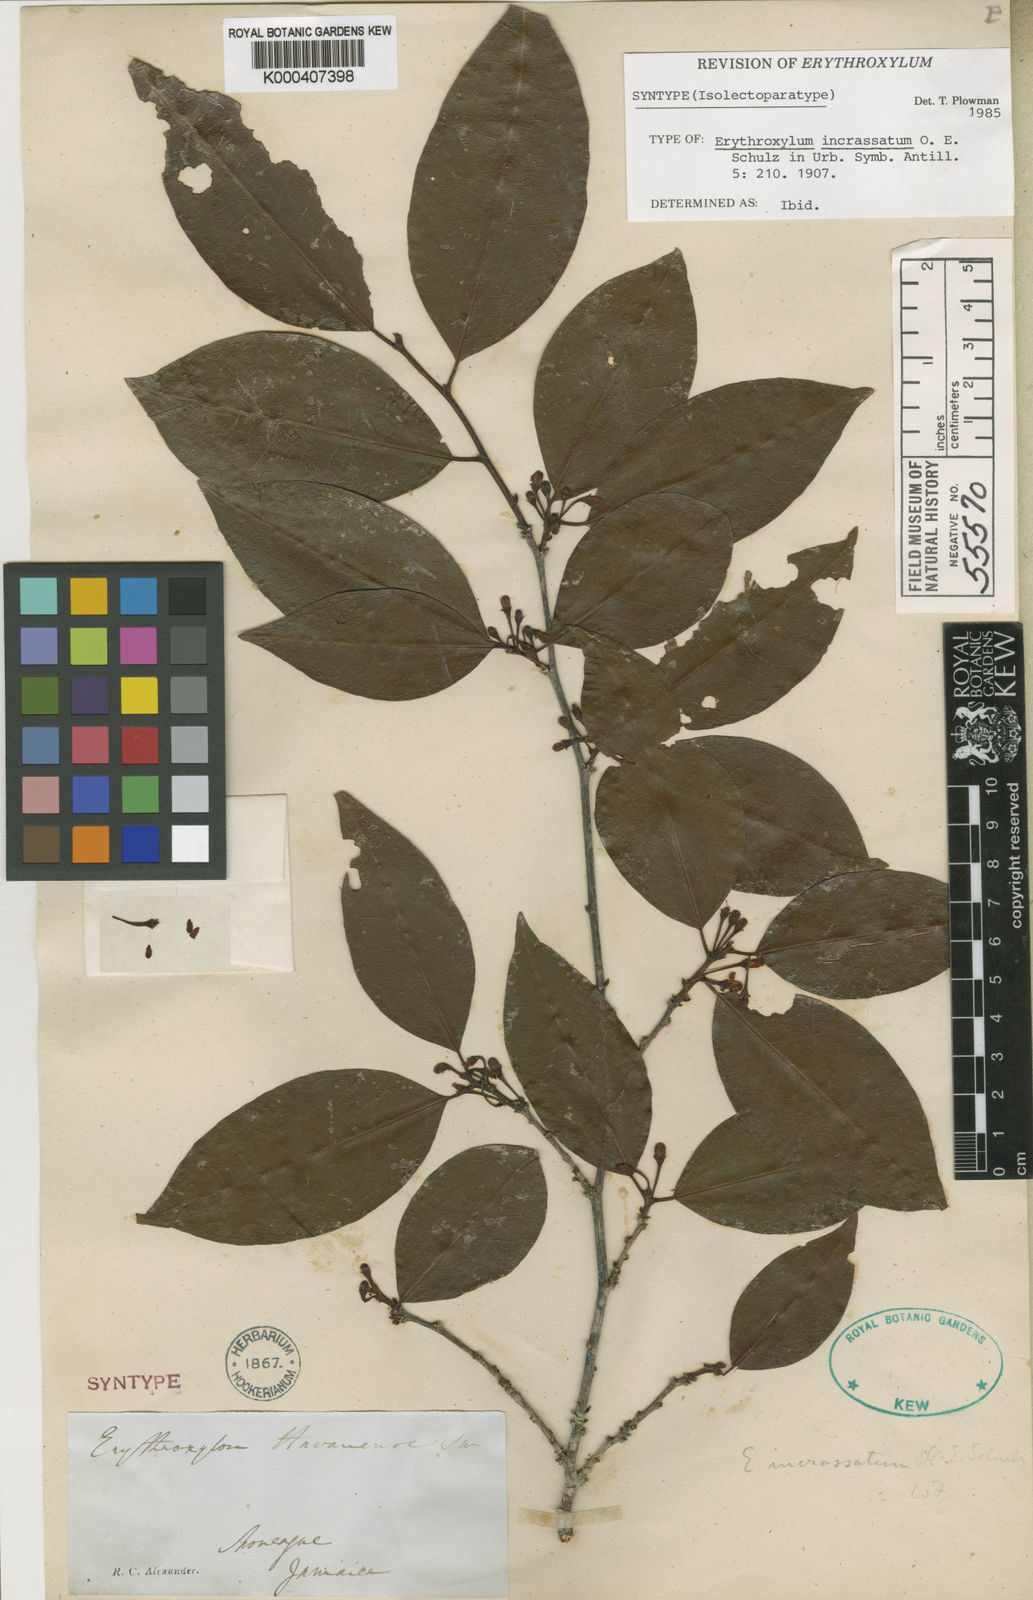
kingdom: Plantae
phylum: Tracheophyta
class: Magnoliopsida
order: Malpighiales
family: Erythroxylaceae
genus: Erythroxylum
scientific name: Erythroxylum incrassatum
